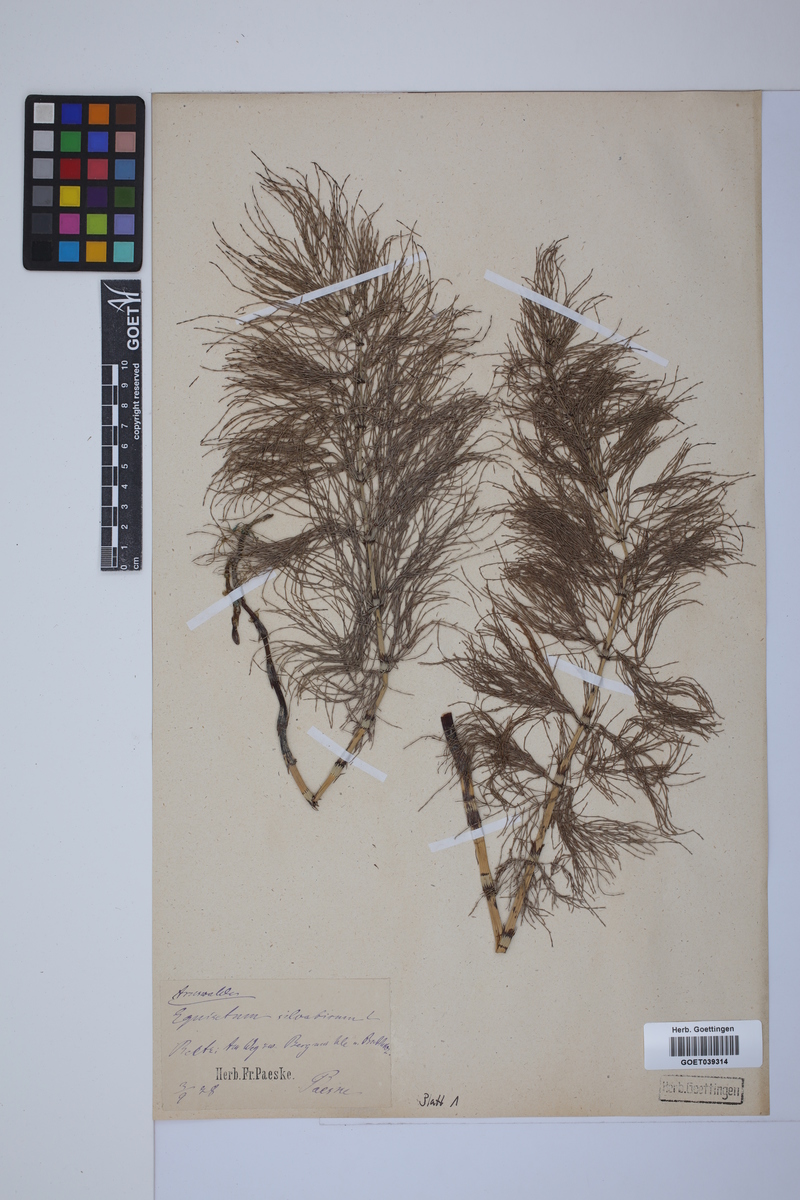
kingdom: Plantae
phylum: Tracheophyta
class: Polypodiopsida
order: Equisetales
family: Equisetaceae
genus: Equisetum
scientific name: Equisetum sylvaticum
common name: Wood horsetail
